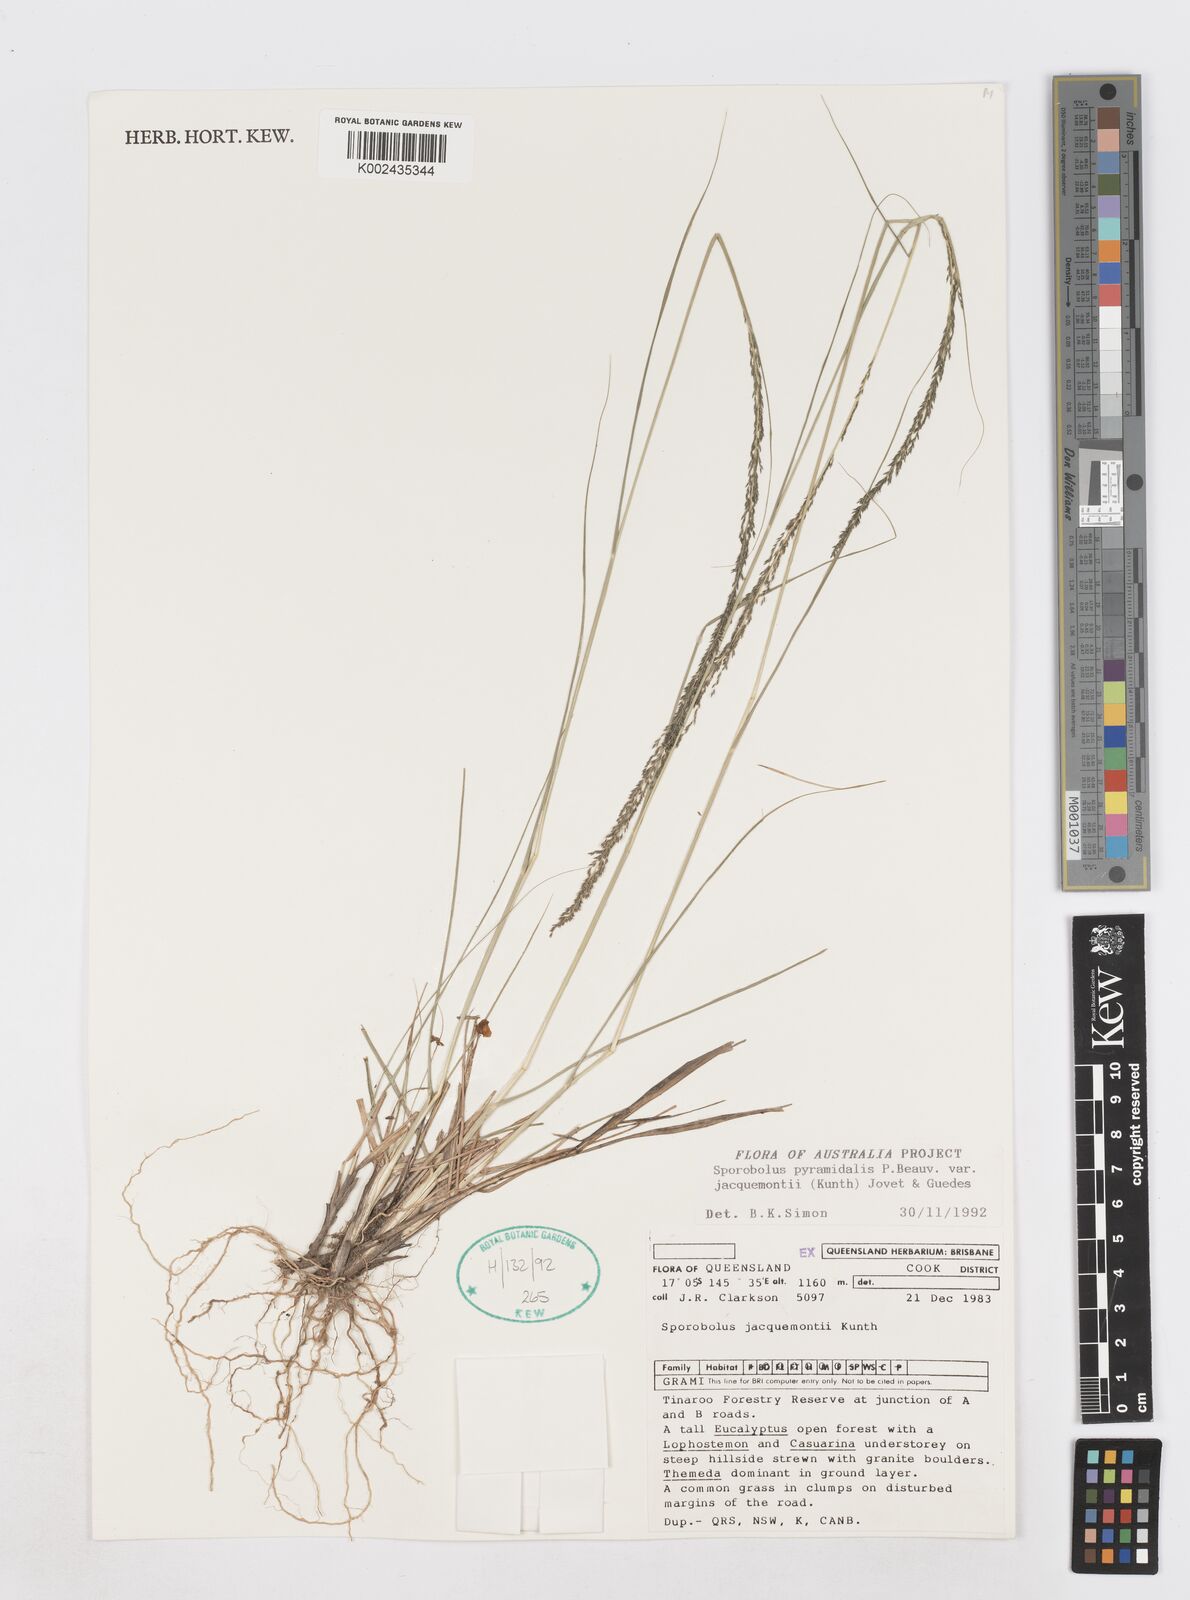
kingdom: Plantae
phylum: Tracheophyta
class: Liliopsida
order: Poales
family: Poaceae
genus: Sporobolus
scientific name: Sporobolus pyramidalis
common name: West indian dropseed
